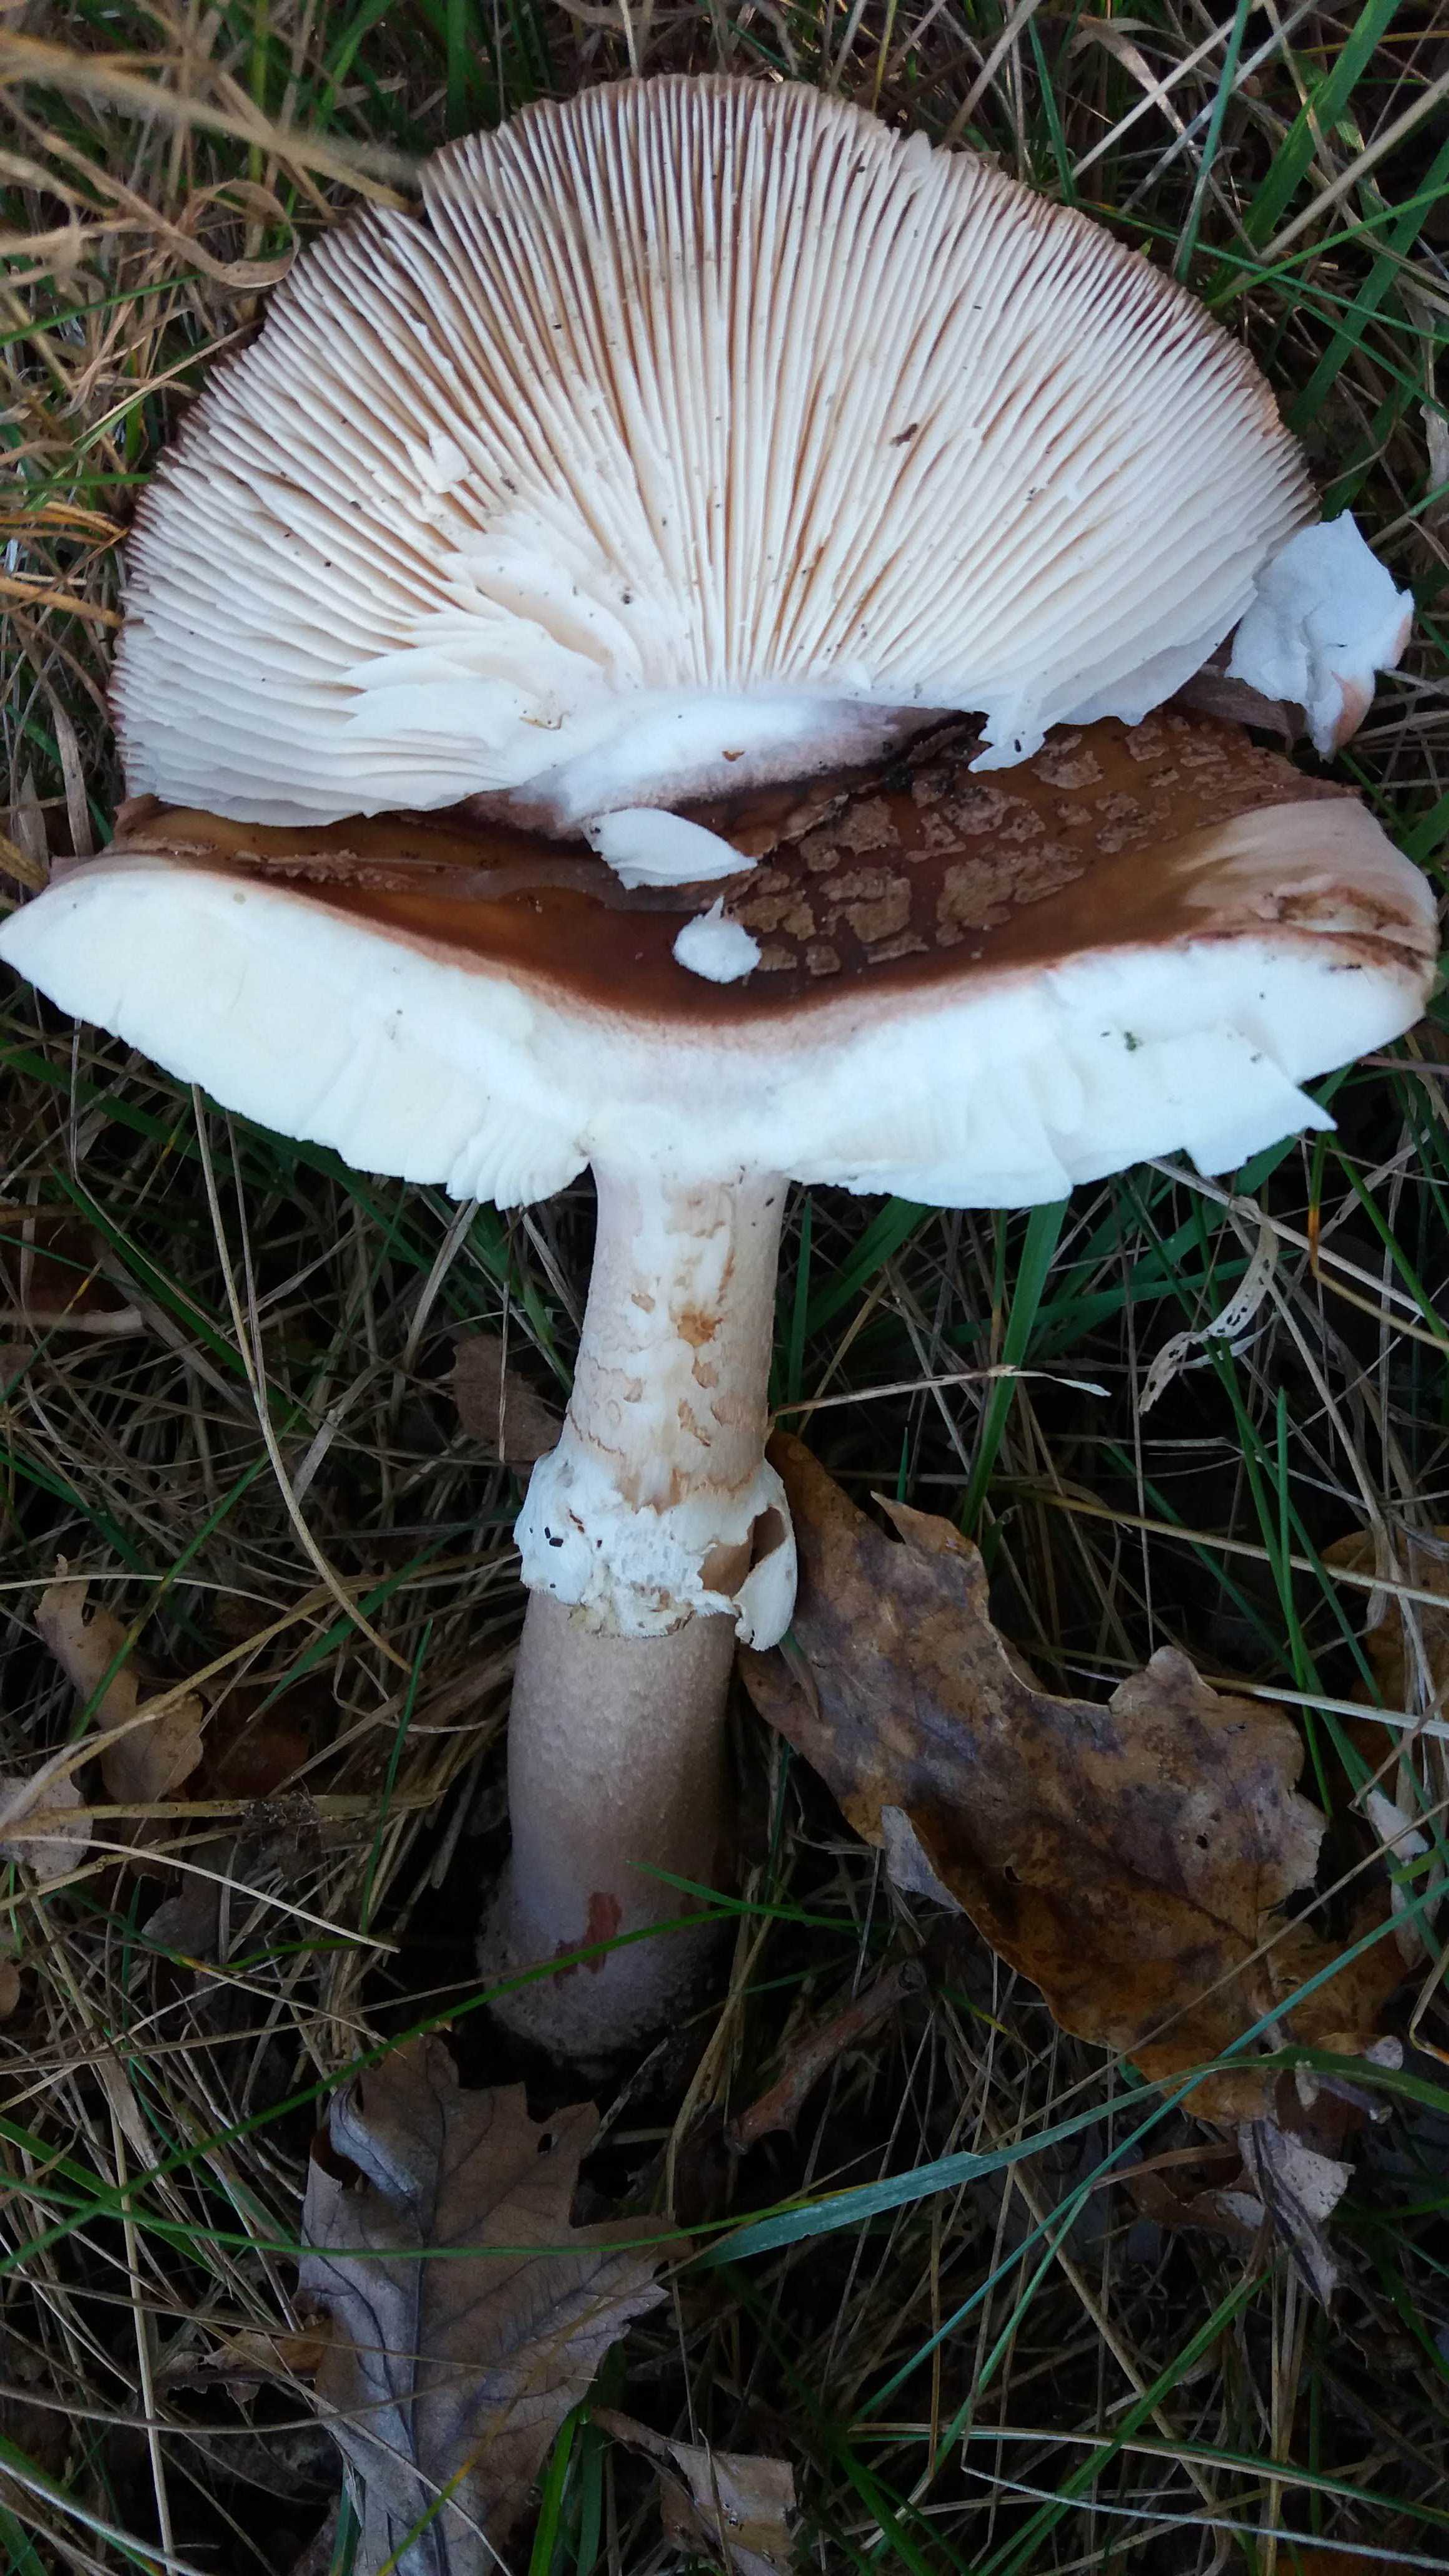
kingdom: Fungi
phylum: Basidiomycota
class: Agaricomycetes
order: Agaricales
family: Amanitaceae
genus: Amanita
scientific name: Amanita rubescens
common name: rødmende fluesvamp
